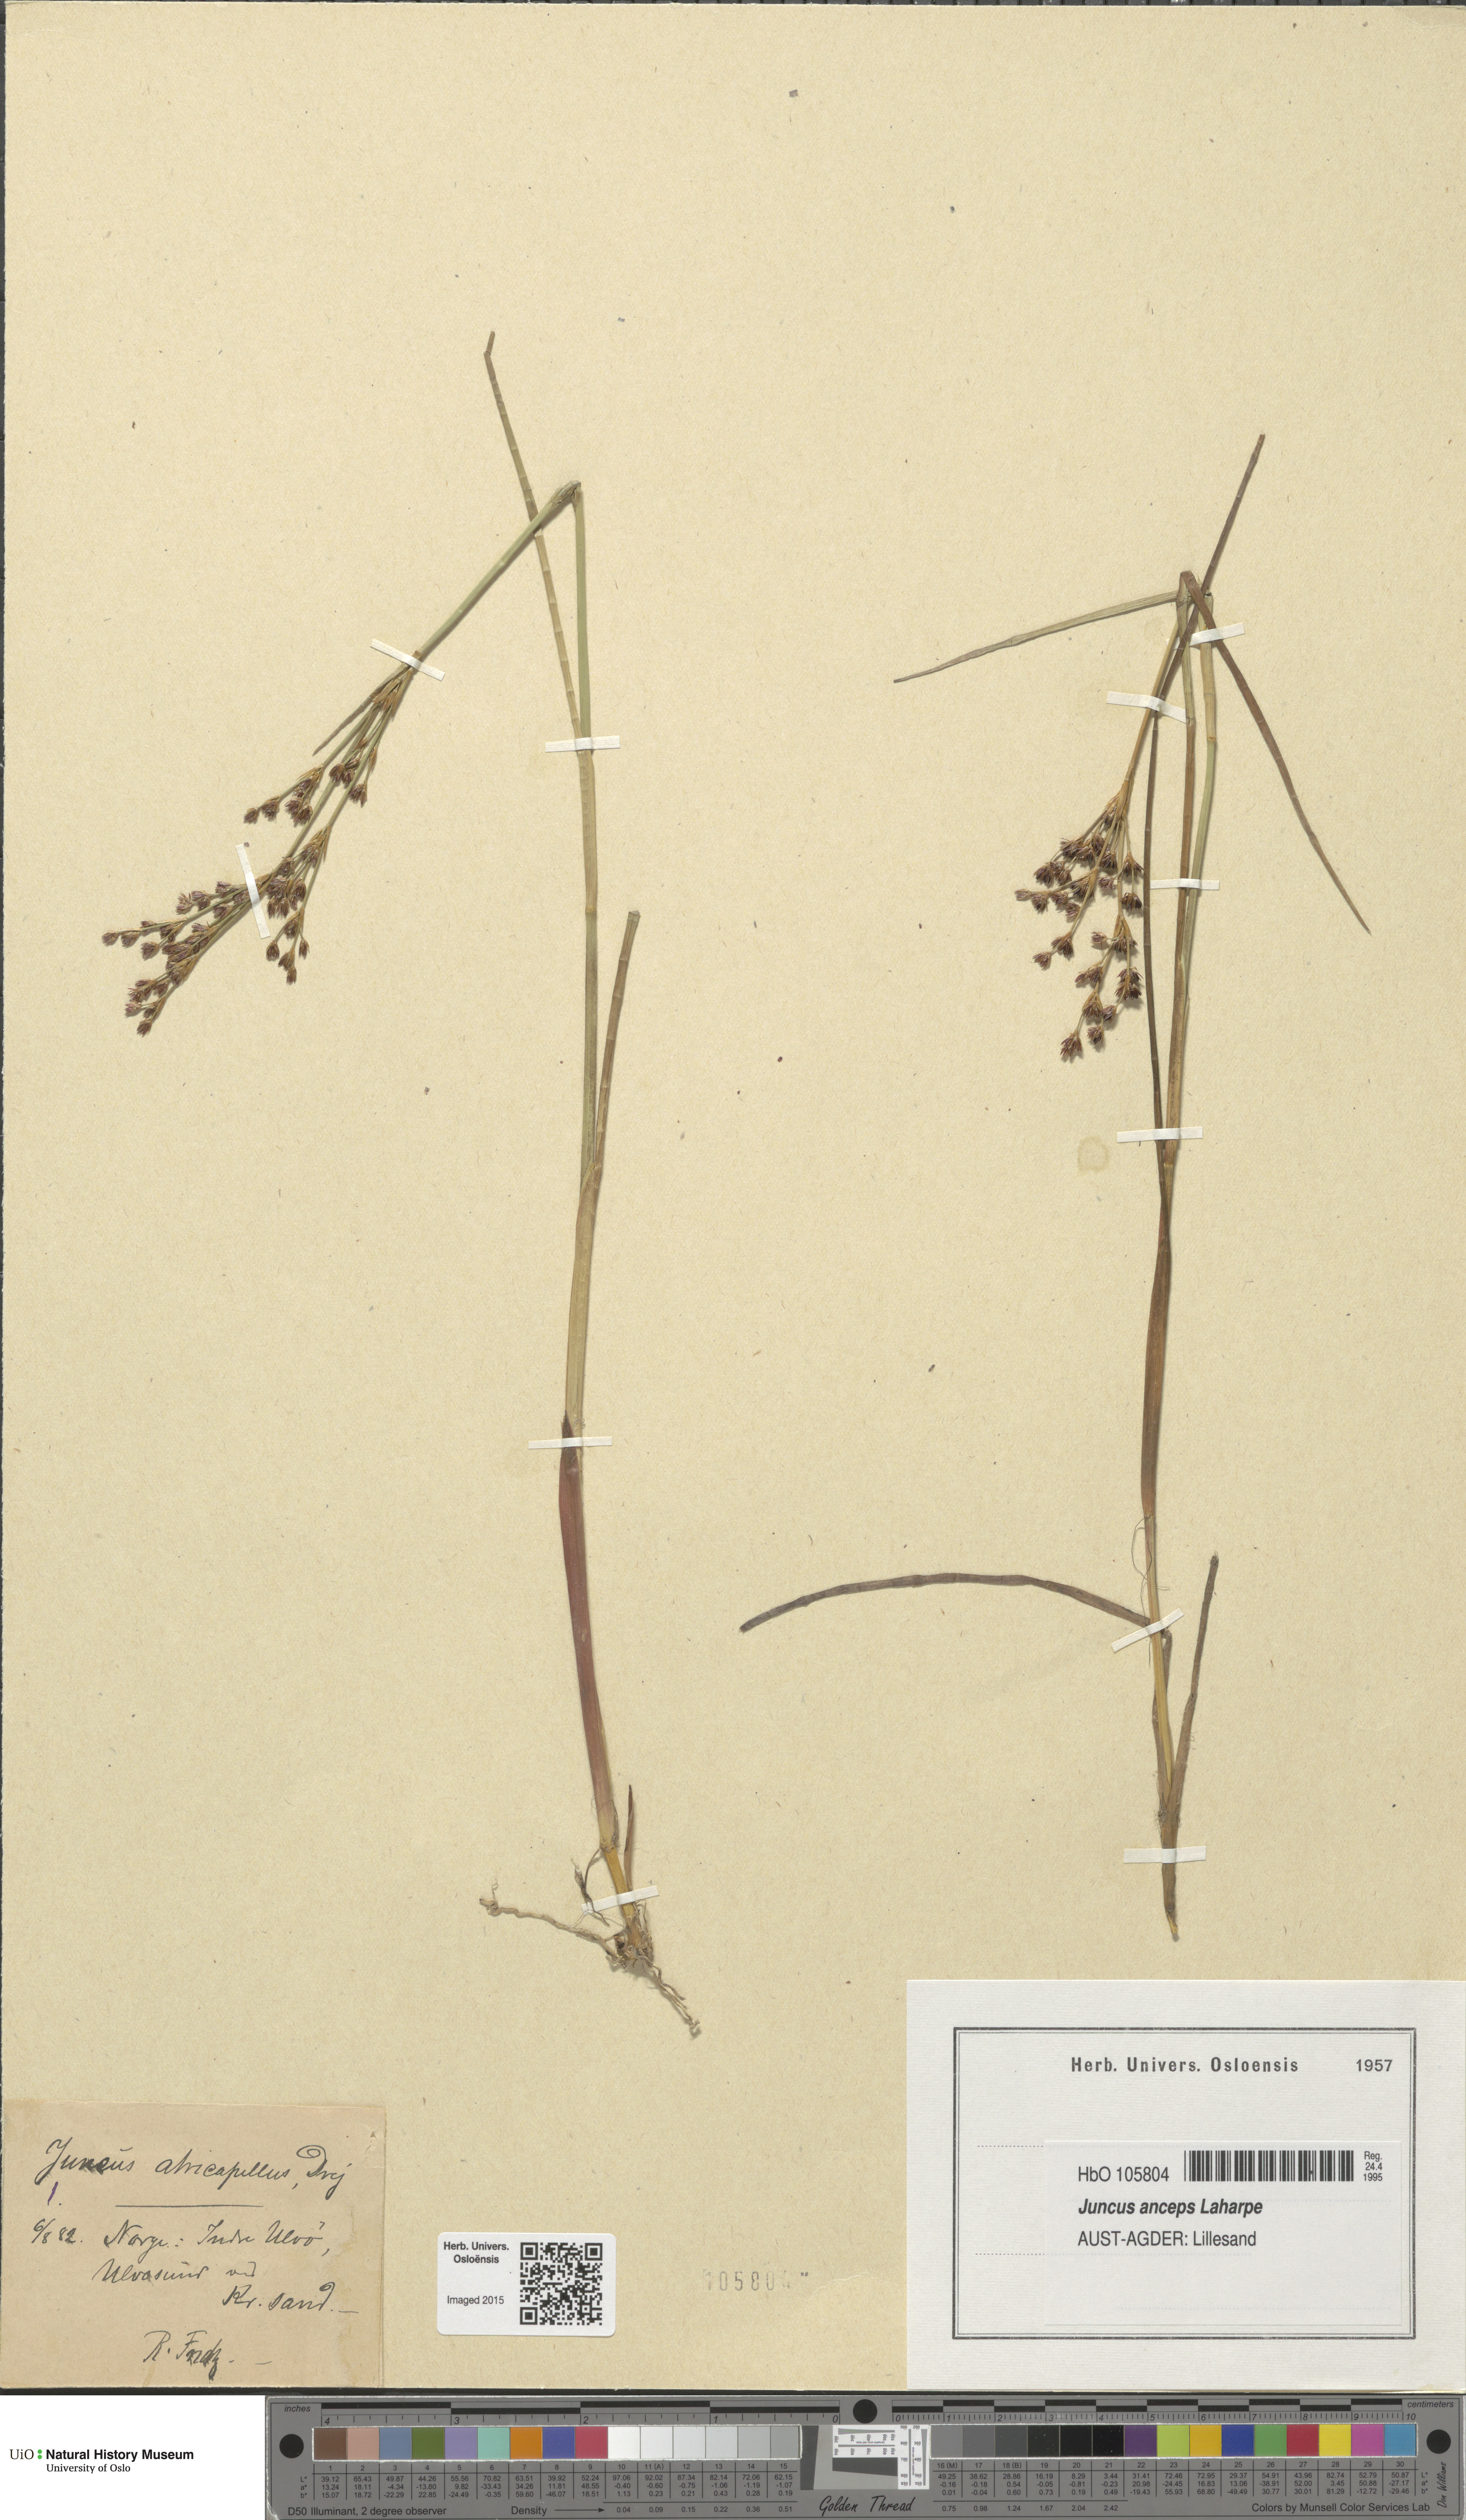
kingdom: Plantae
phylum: Tracheophyta
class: Liliopsida
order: Poales
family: Juncaceae
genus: Juncus
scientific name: Juncus anceps
